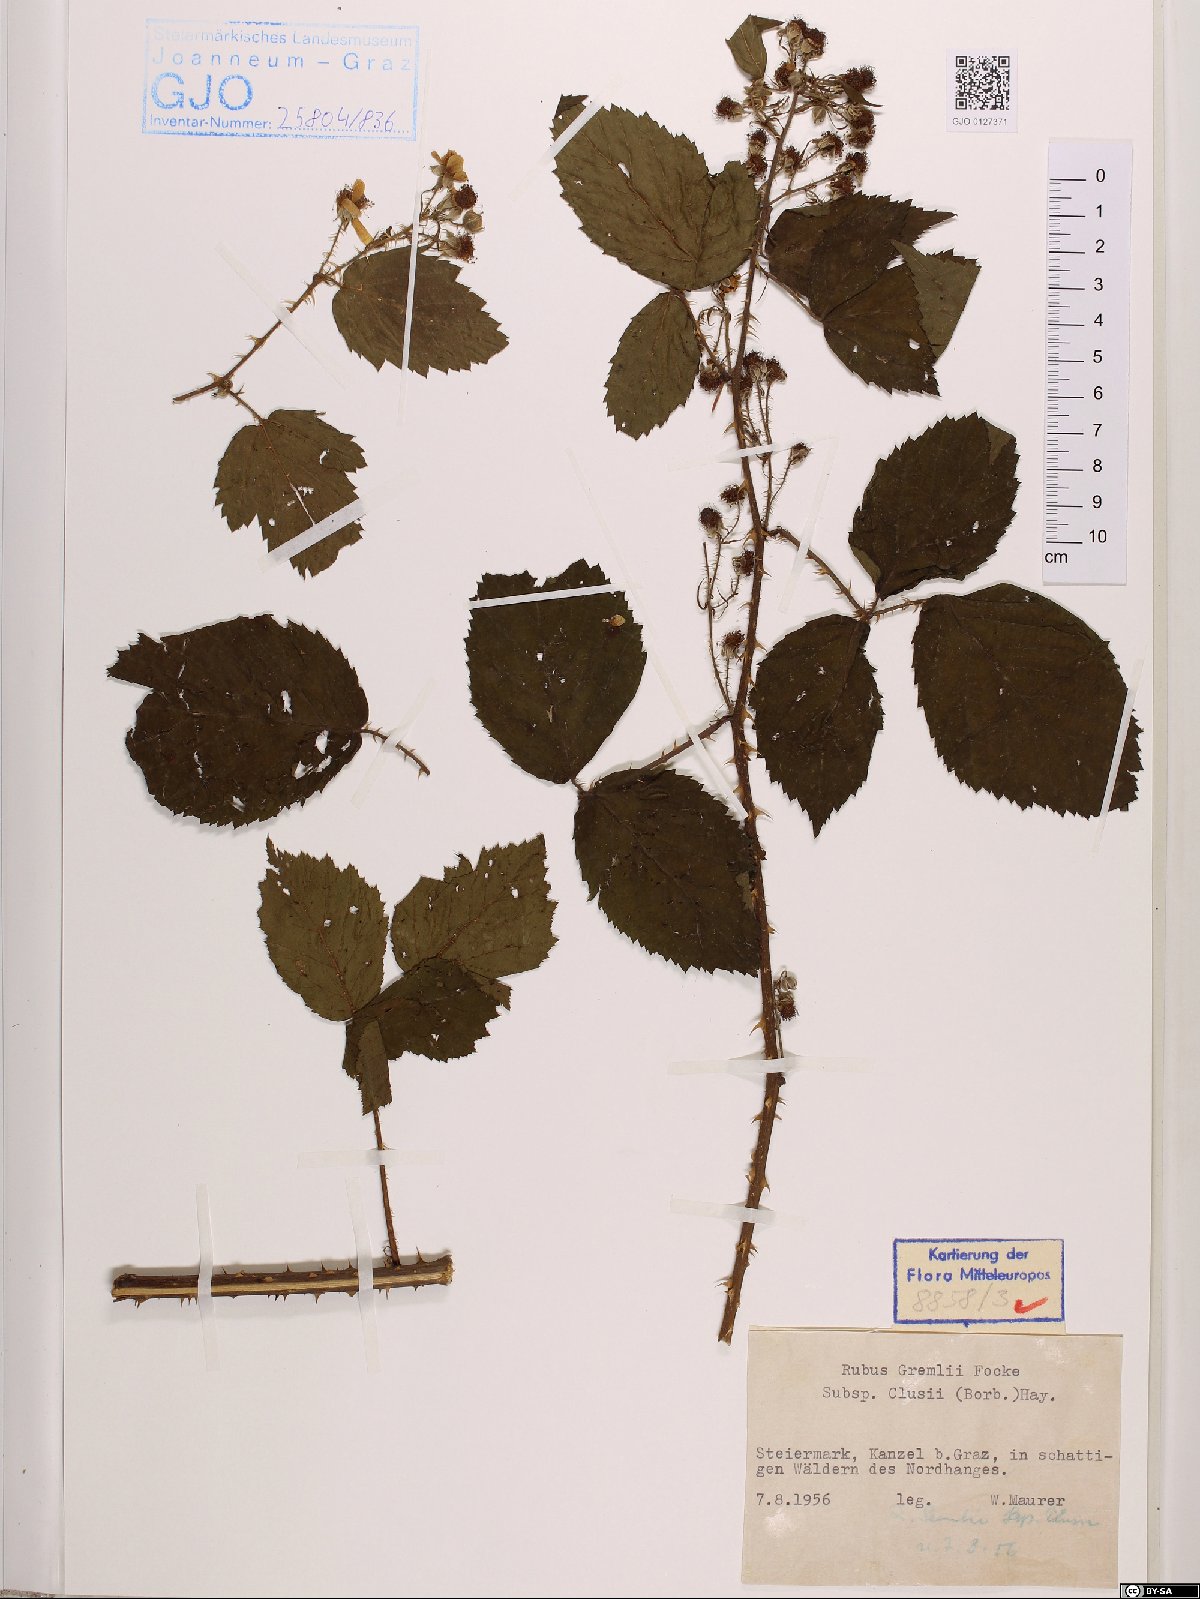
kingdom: Plantae
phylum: Tracheophyta
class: Magnoliopsida
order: Rosales
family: Rosaceae
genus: Rubus
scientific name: Rubus clusii
